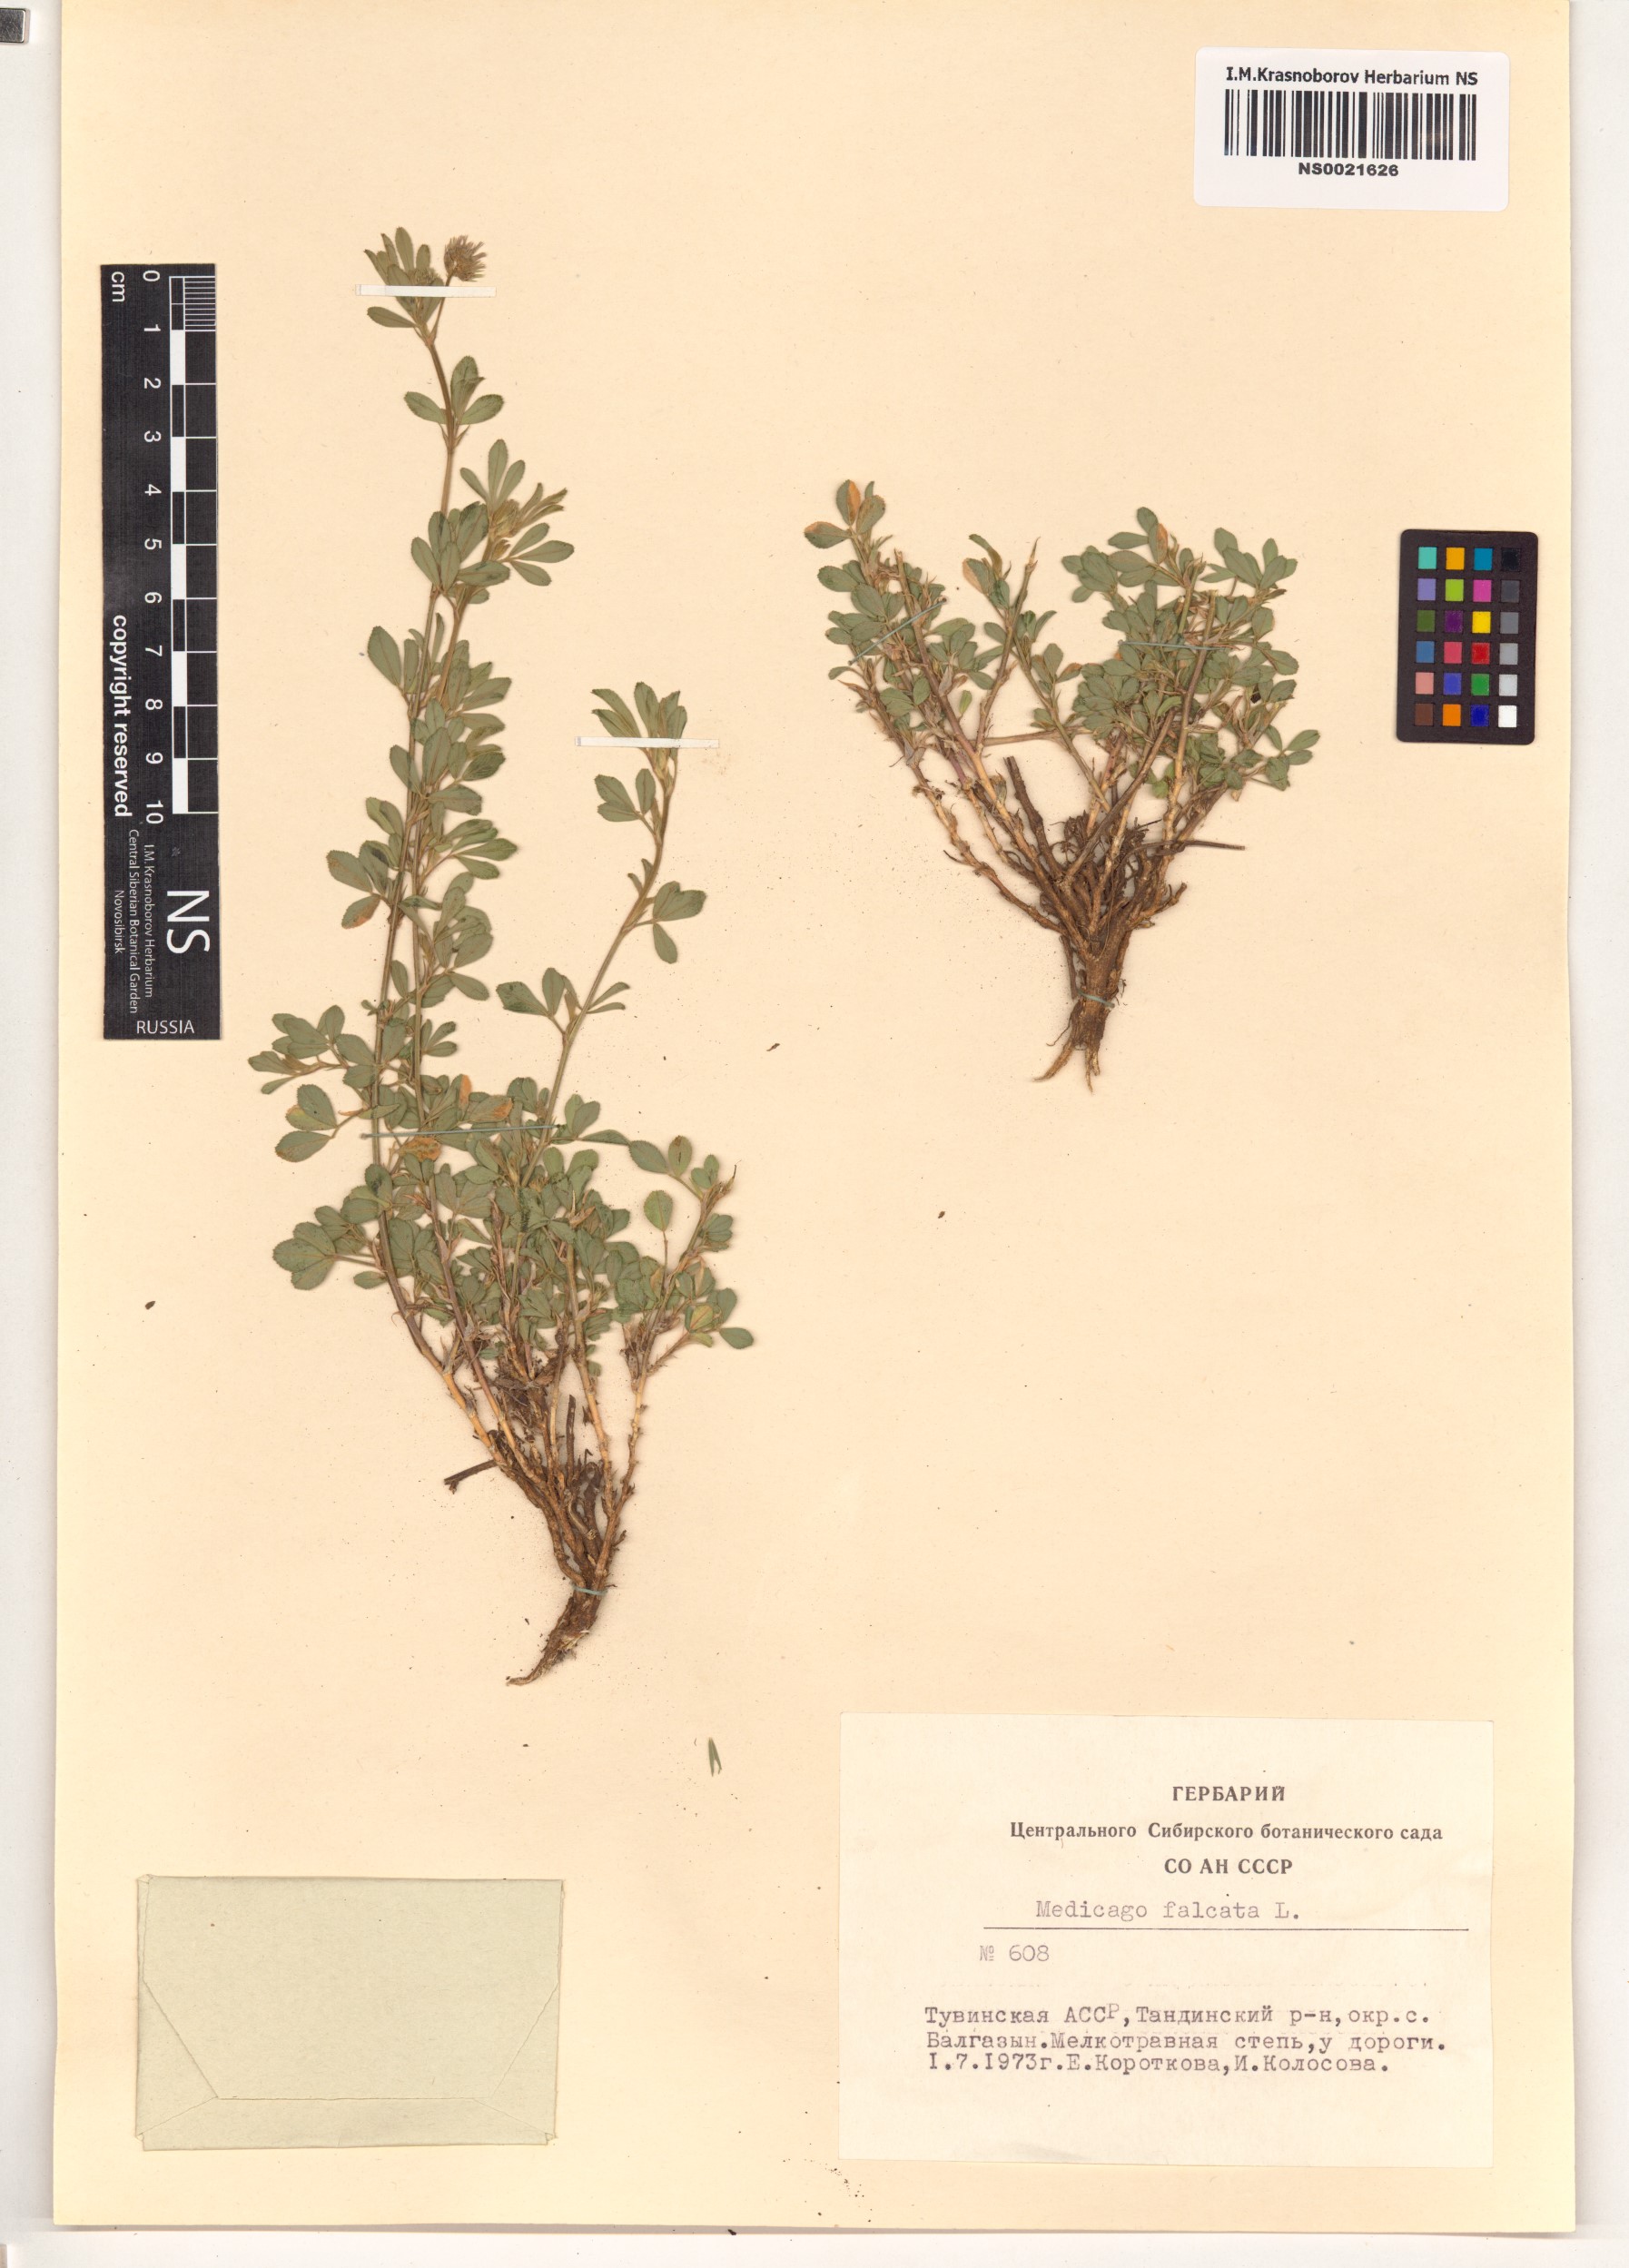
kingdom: Plantae
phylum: Tracheophyta
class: Magnoliopsida
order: Fabales
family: Fabaceae
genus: Medicago
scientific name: Medicago falcata
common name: Sickle medick
